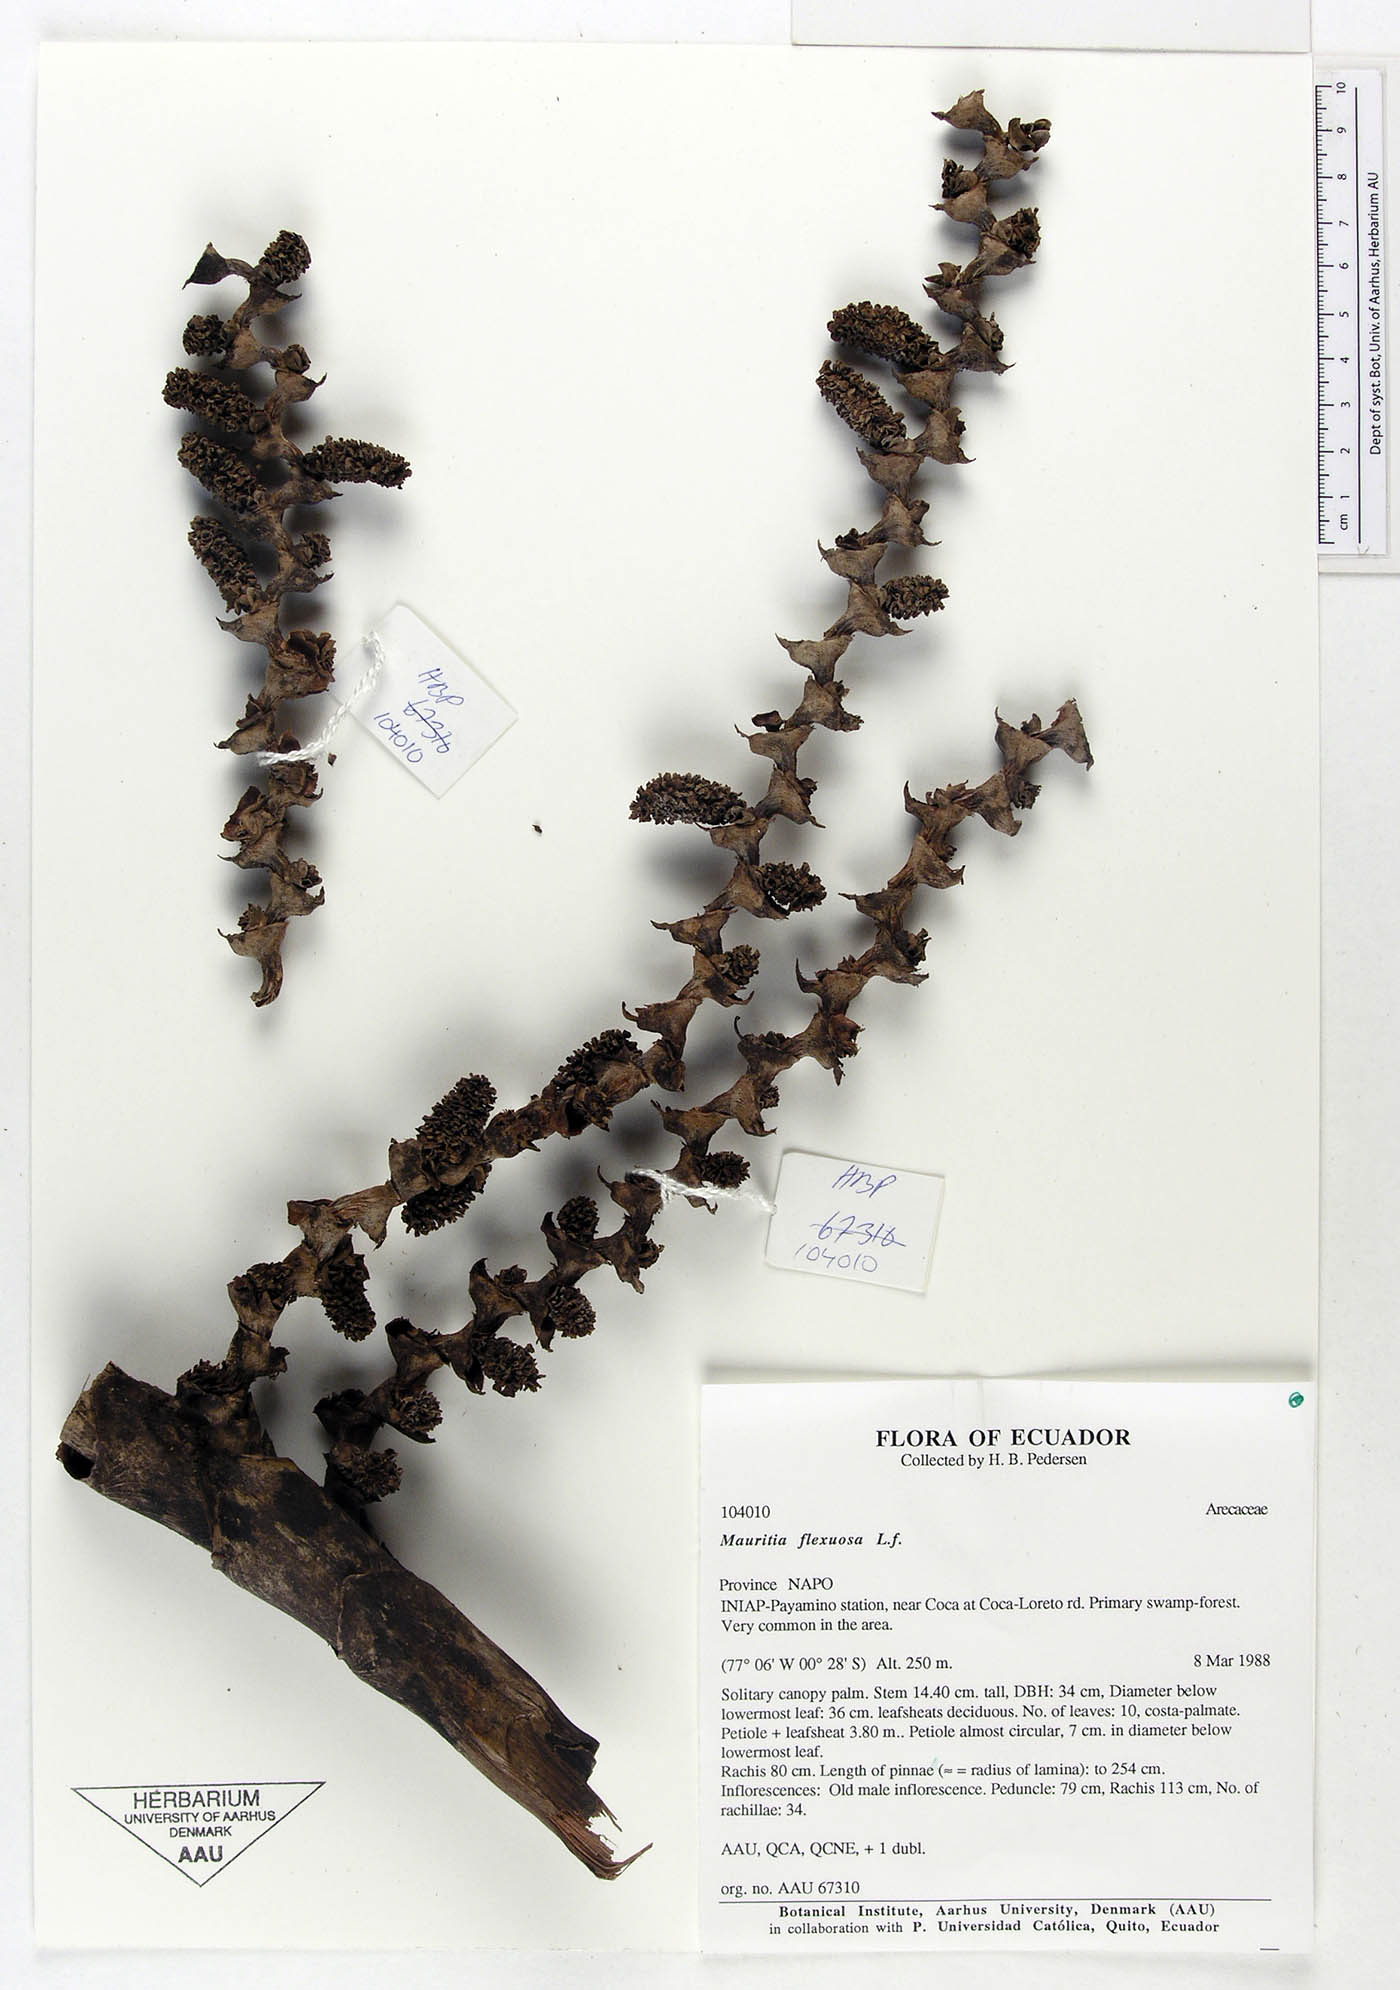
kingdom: Plantae
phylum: Tracheophyta
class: Liliopsida
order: Arecales
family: Arecaceae
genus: Mauritia
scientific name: Mauritia flexuosa
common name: Tree-of-life
